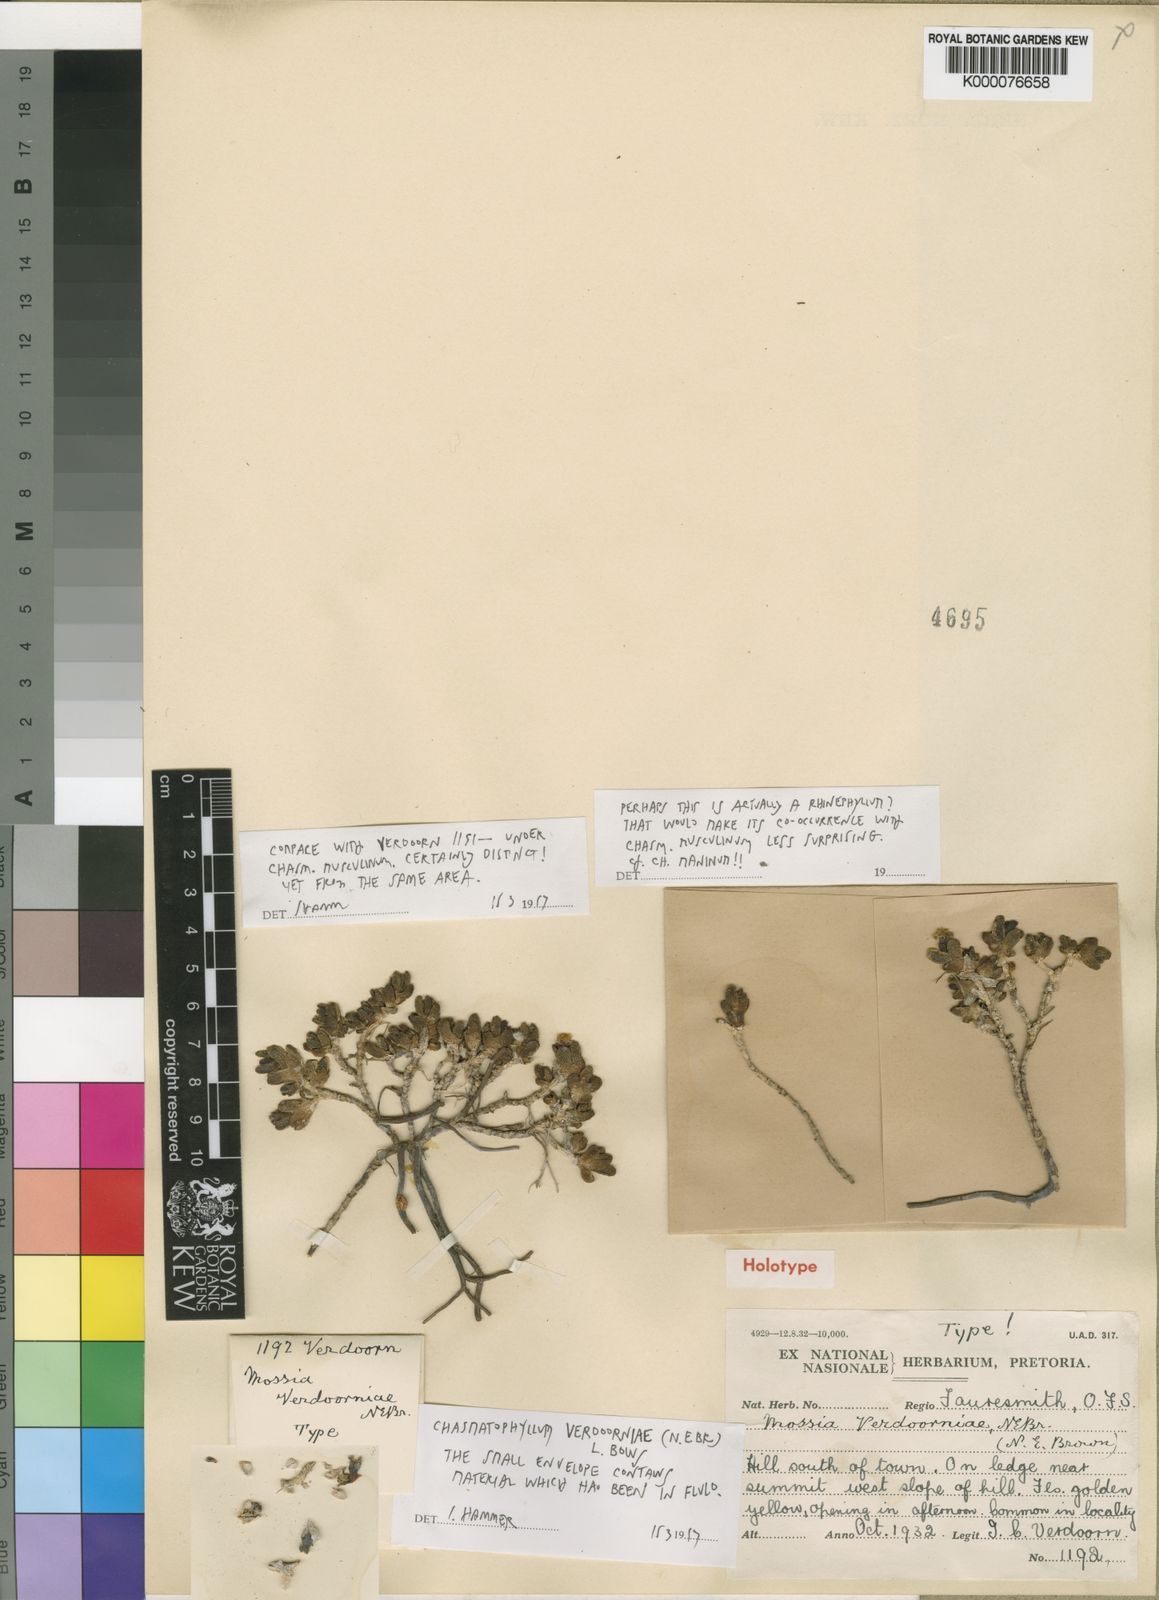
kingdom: Plantae
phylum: Tracheophyta
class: Magnoliopsida
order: Caryophyllales
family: Aizoaceae
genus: Rhinephyllum
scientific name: Rhinephyllum verdoorniae
